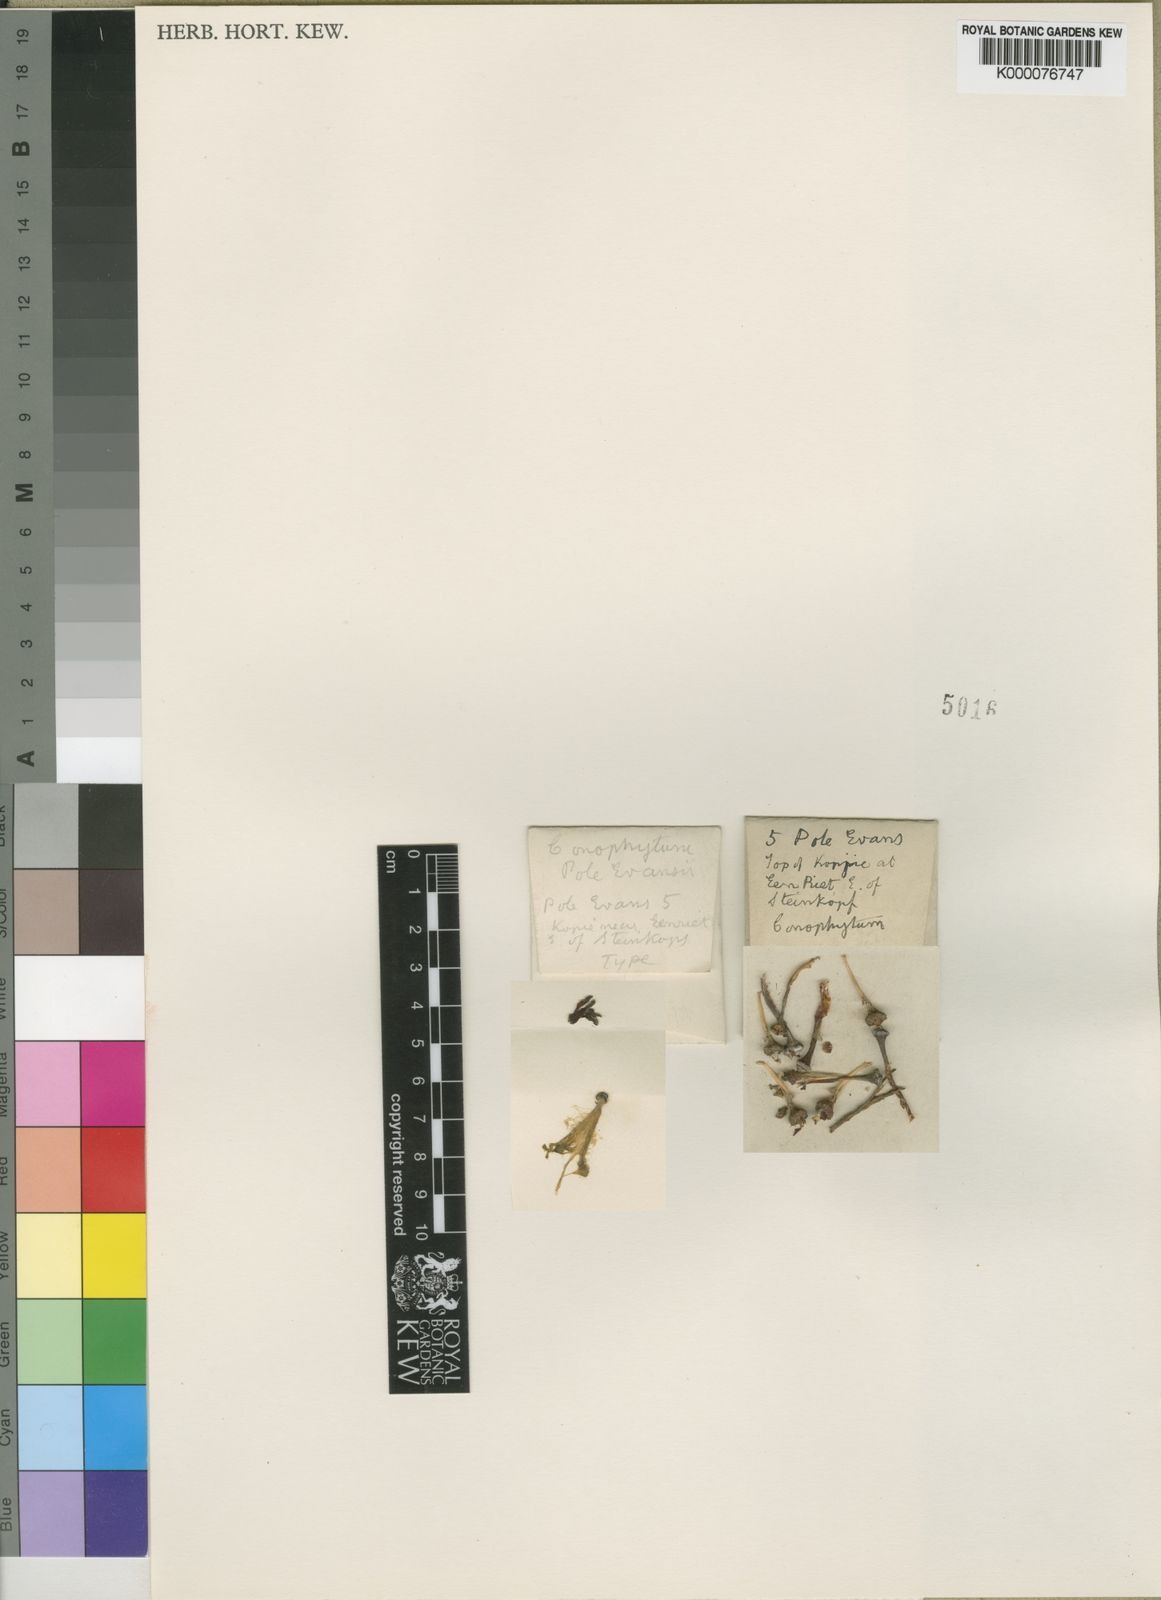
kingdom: Plantae
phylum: Tracheophyta
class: Magnoliopsida
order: Caryophyllales
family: Aizoaceae
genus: Conophytum
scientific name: Conophytum bilobum
